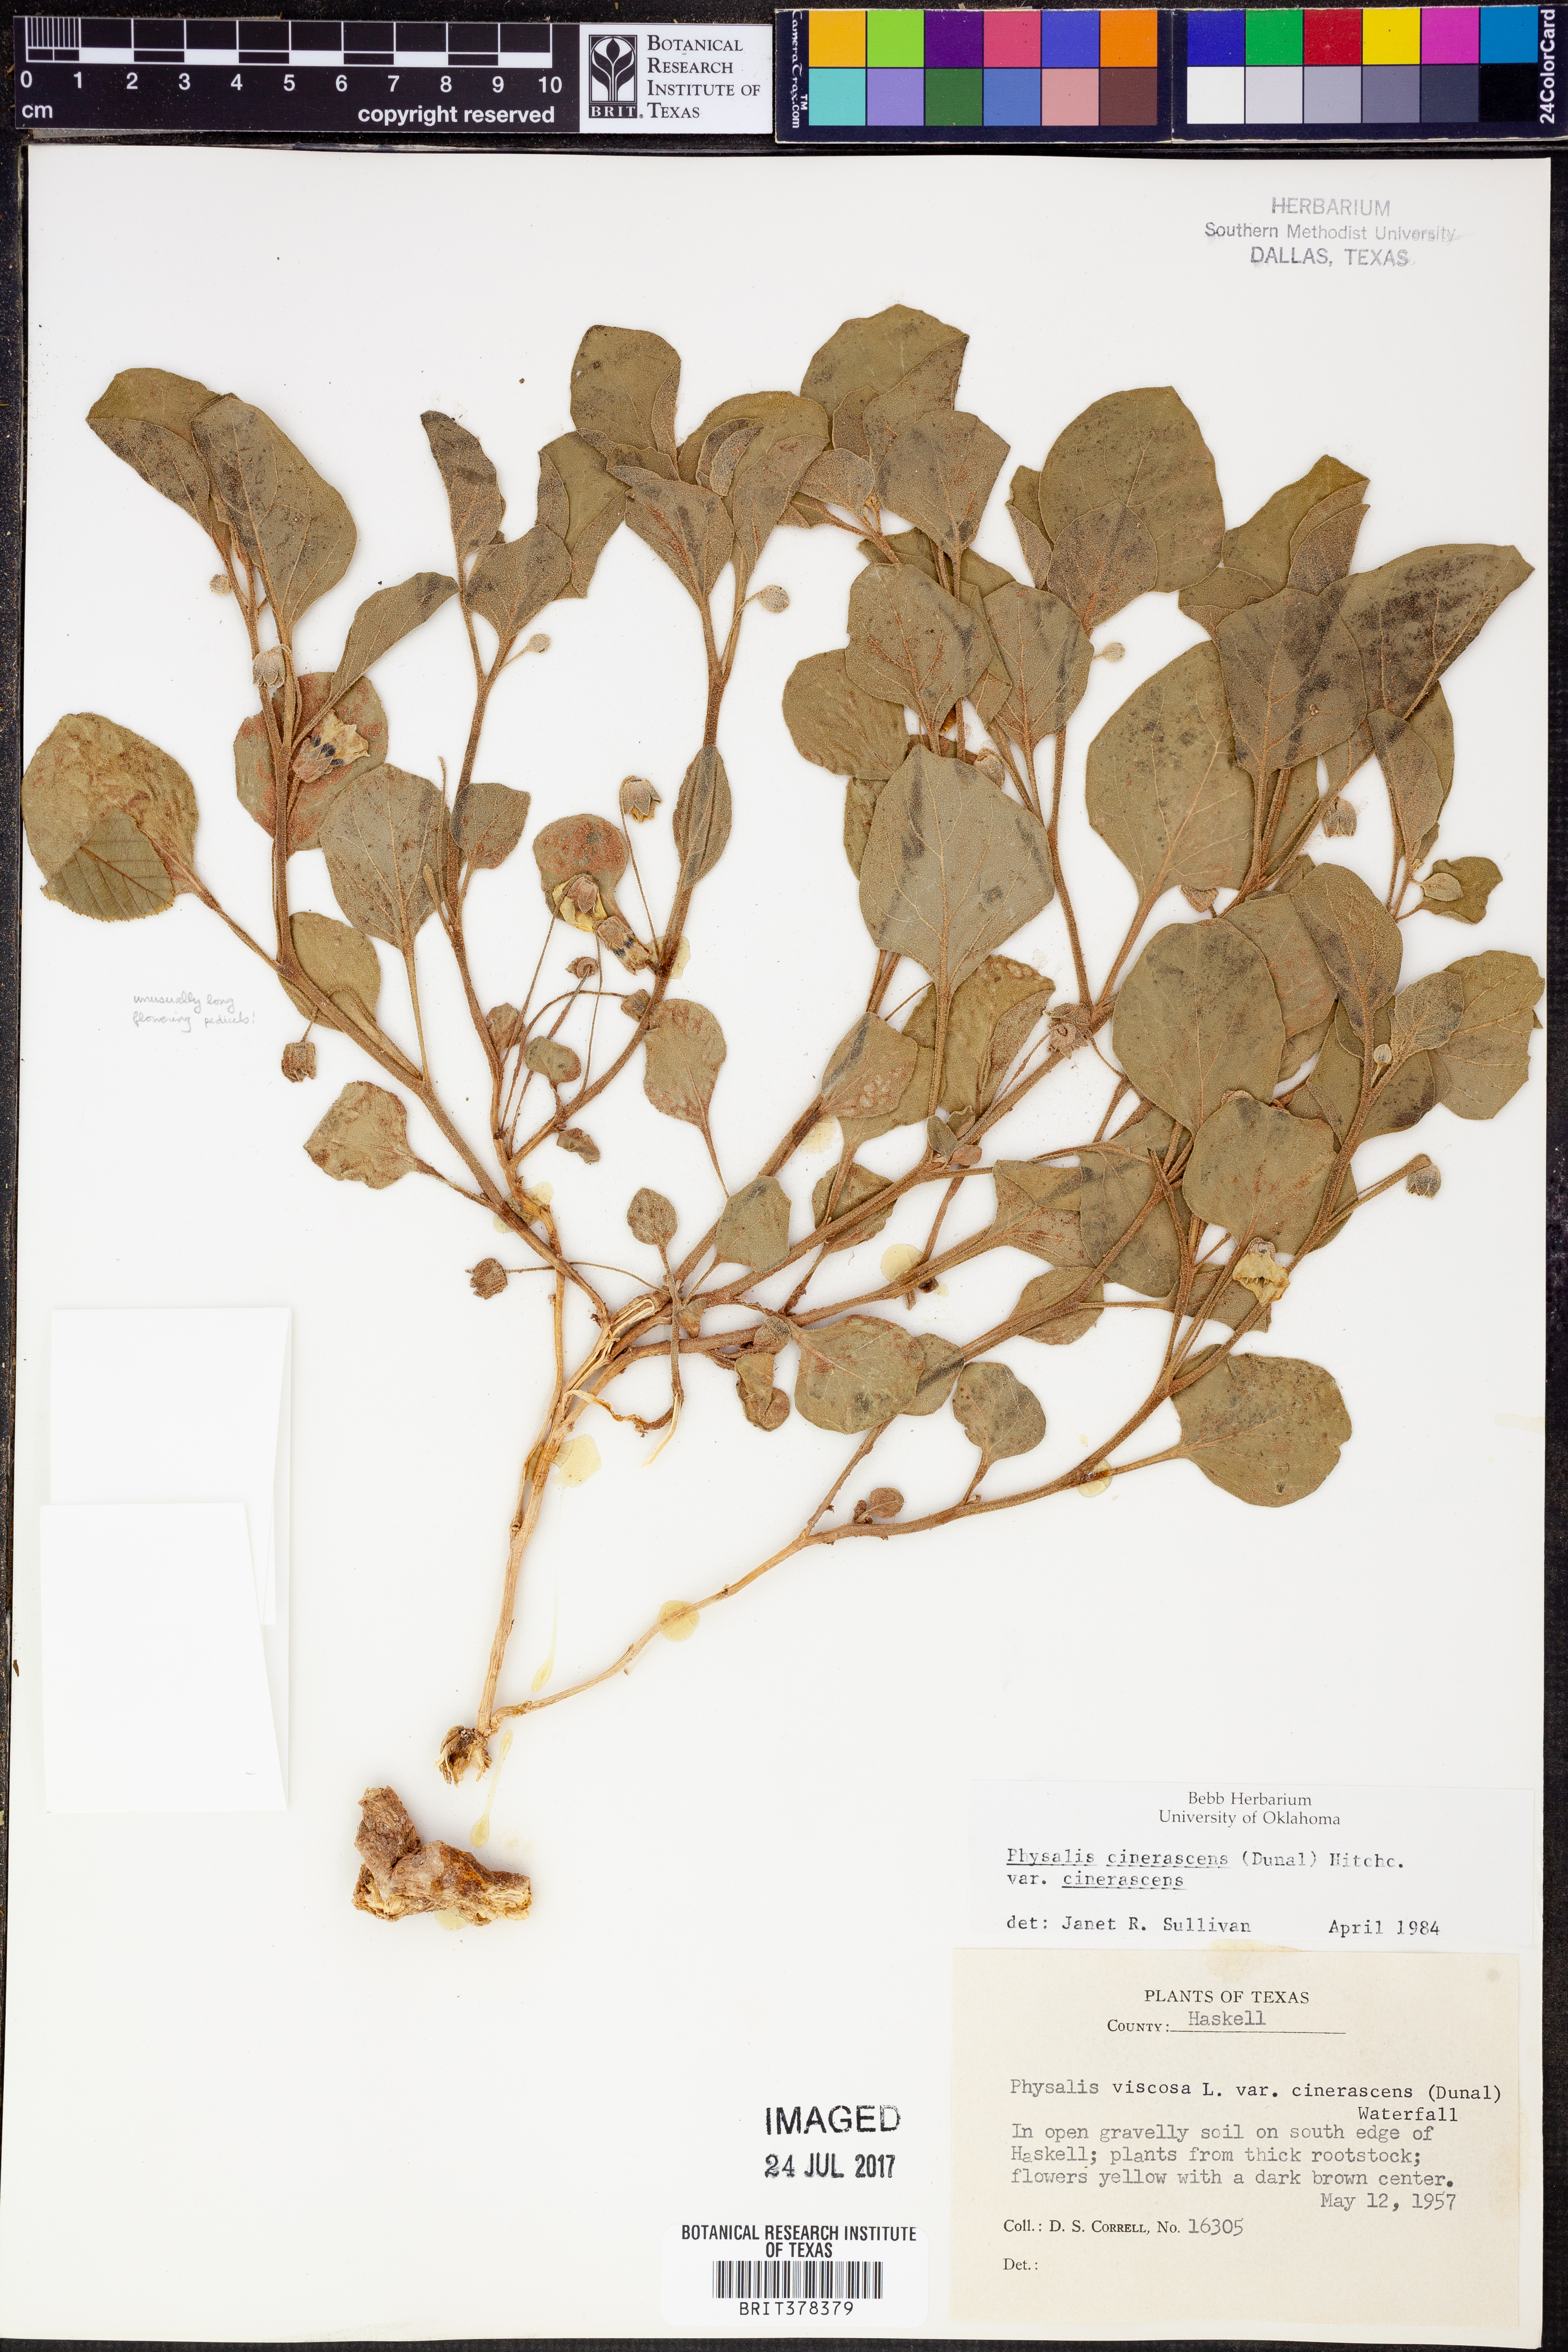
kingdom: Plantae
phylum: Tracheophyta
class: Magnoliopsida
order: Solanales
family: Solanaceae
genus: Physalis
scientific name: Physalis cinerascens
